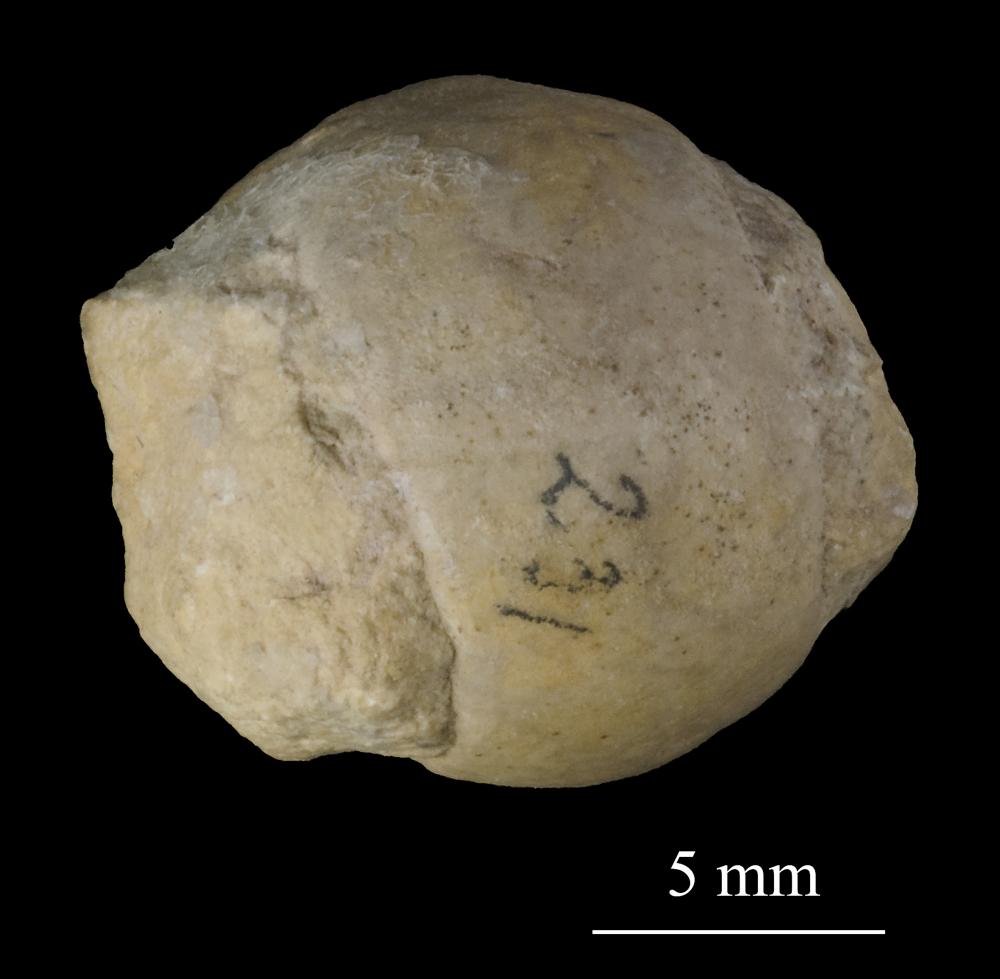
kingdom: Animalia
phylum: Mollusca
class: Gastropoda
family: Bucaniidae
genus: Tetranota
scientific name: Tetranota Bellerophon conspicuus
